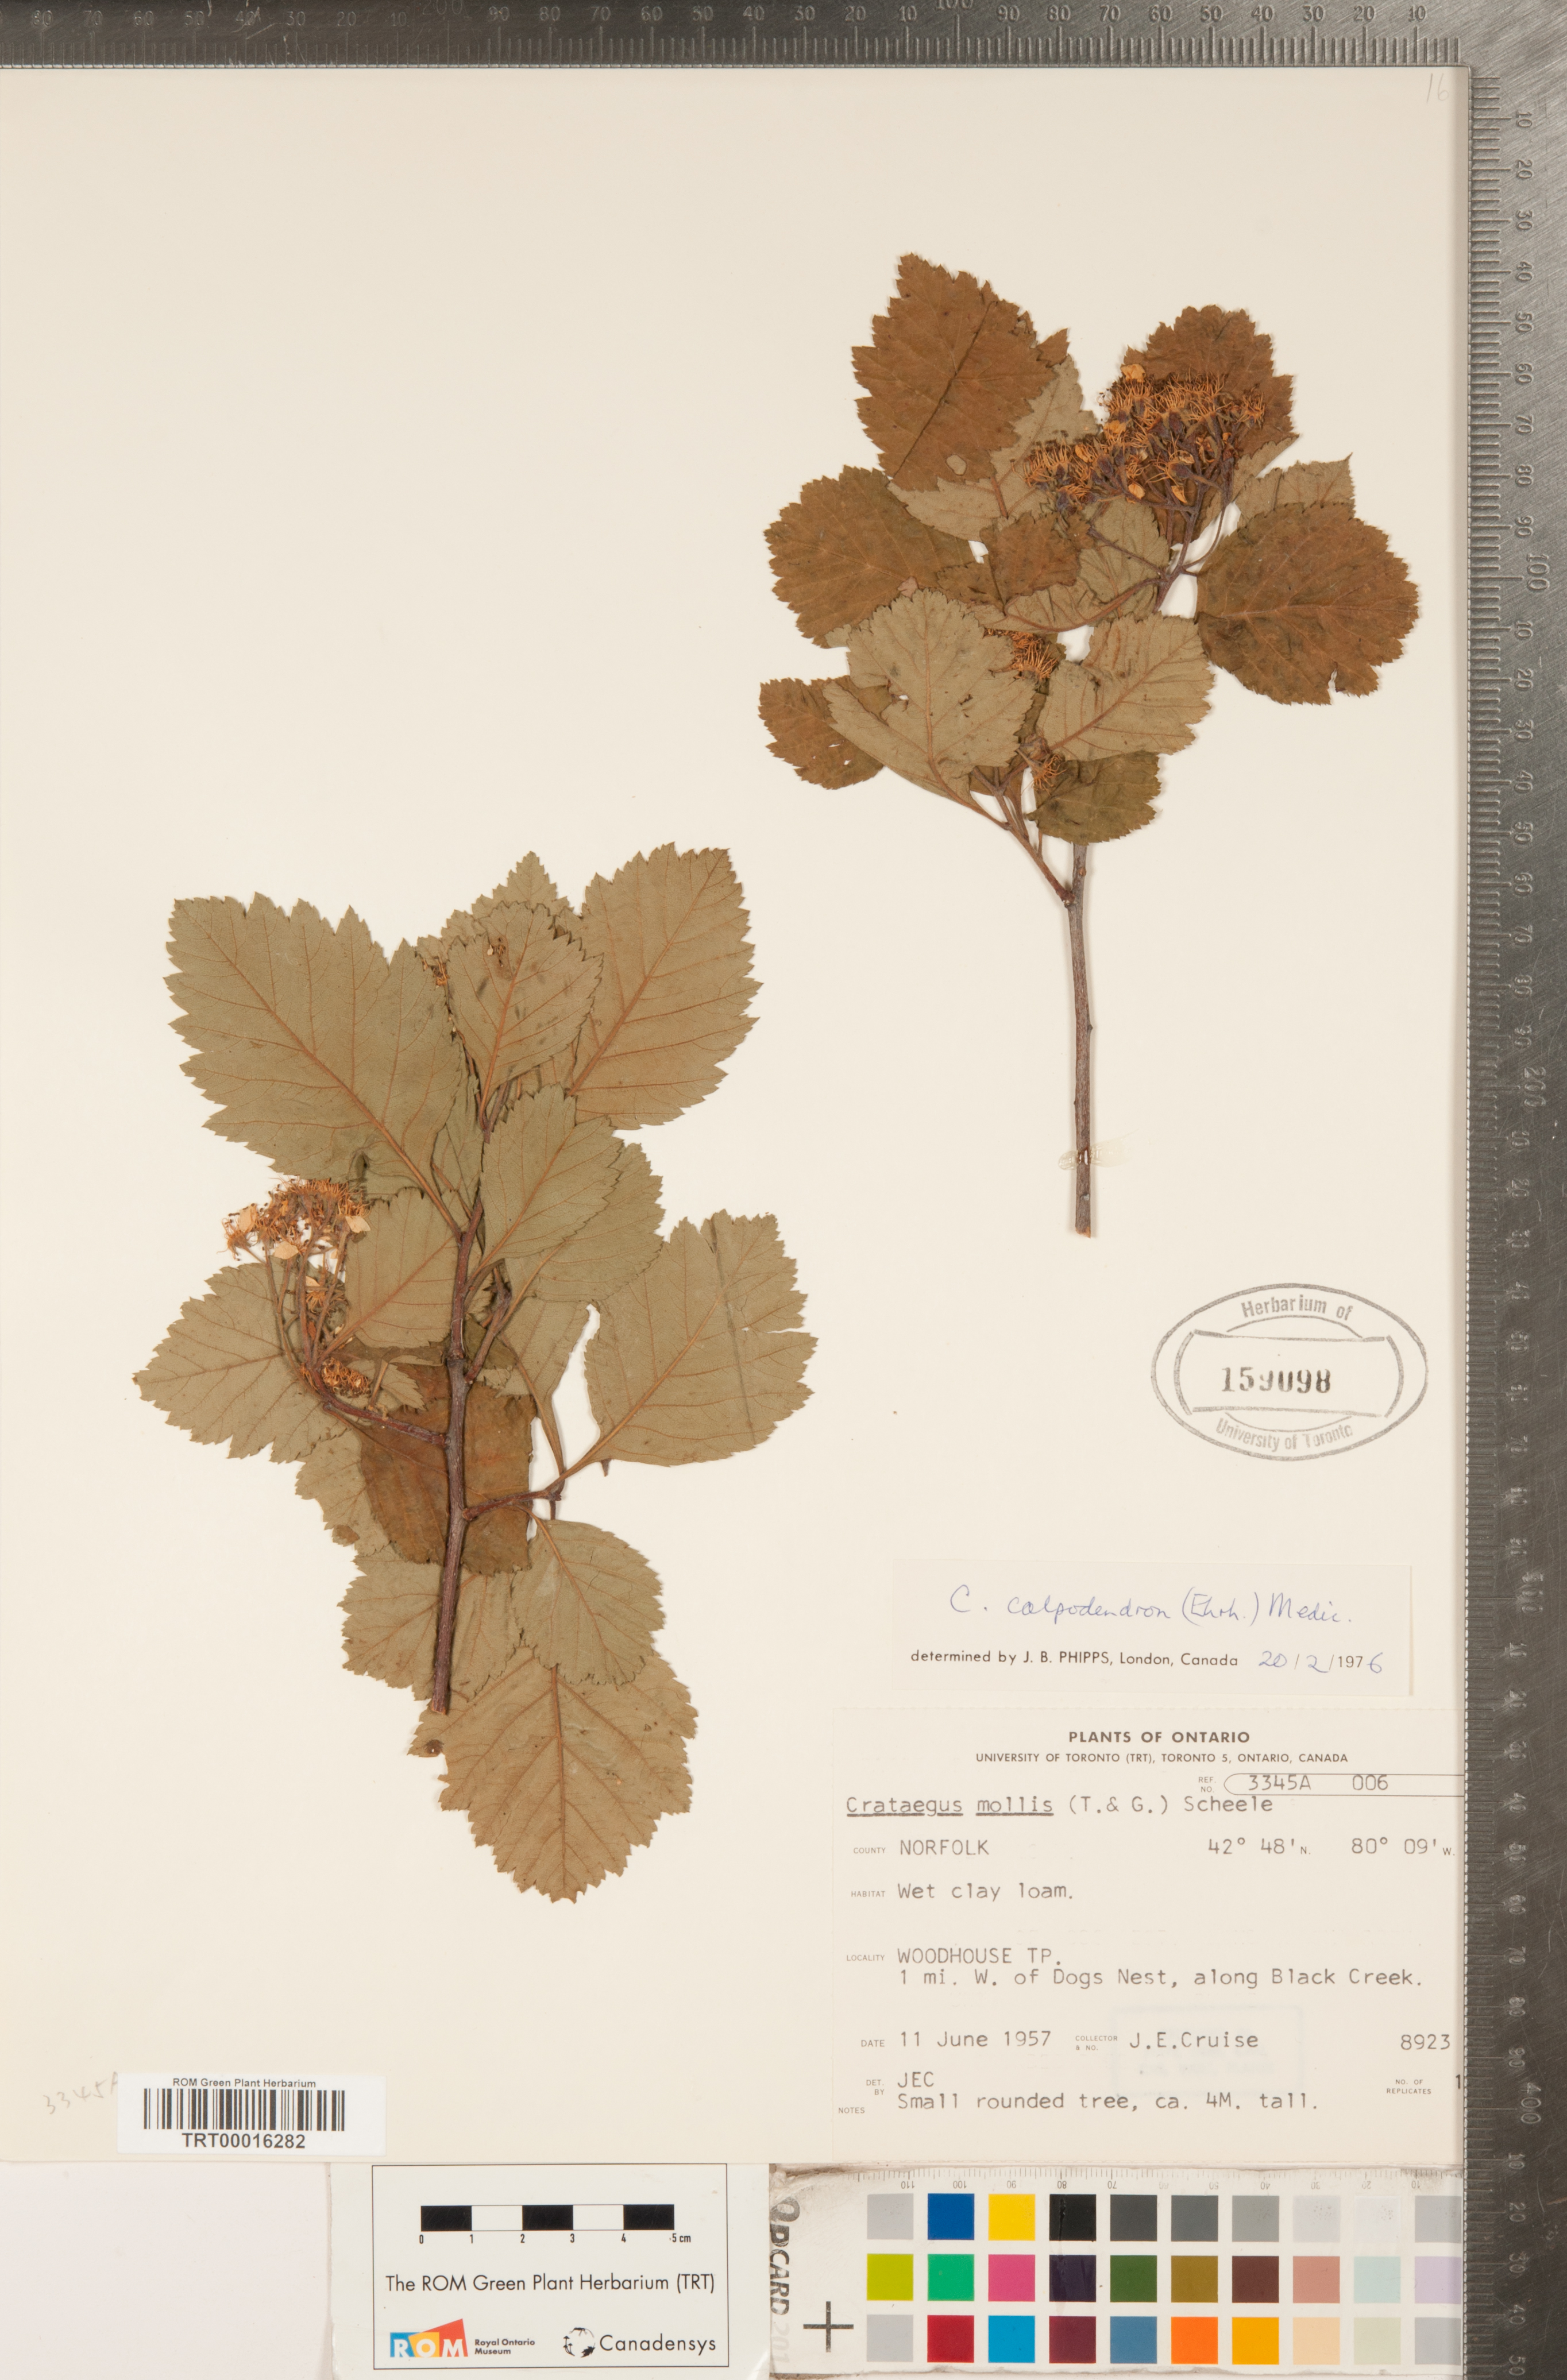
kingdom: Plantae
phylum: Tracheophyta
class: Magnoliopsida
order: Rosales
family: Rosaceae
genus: Crataegus
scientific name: Crataegus calpodendron
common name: Pear hawthorn
